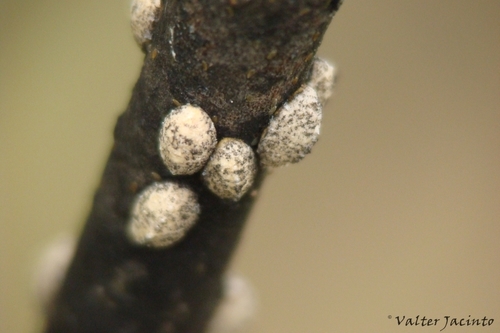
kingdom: Animalia
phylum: Arthropoda
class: Insecta
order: Hemiptera
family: Lecanodiaspididae
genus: Lecanodiaspis
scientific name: Lecanodiaspis sardoa
